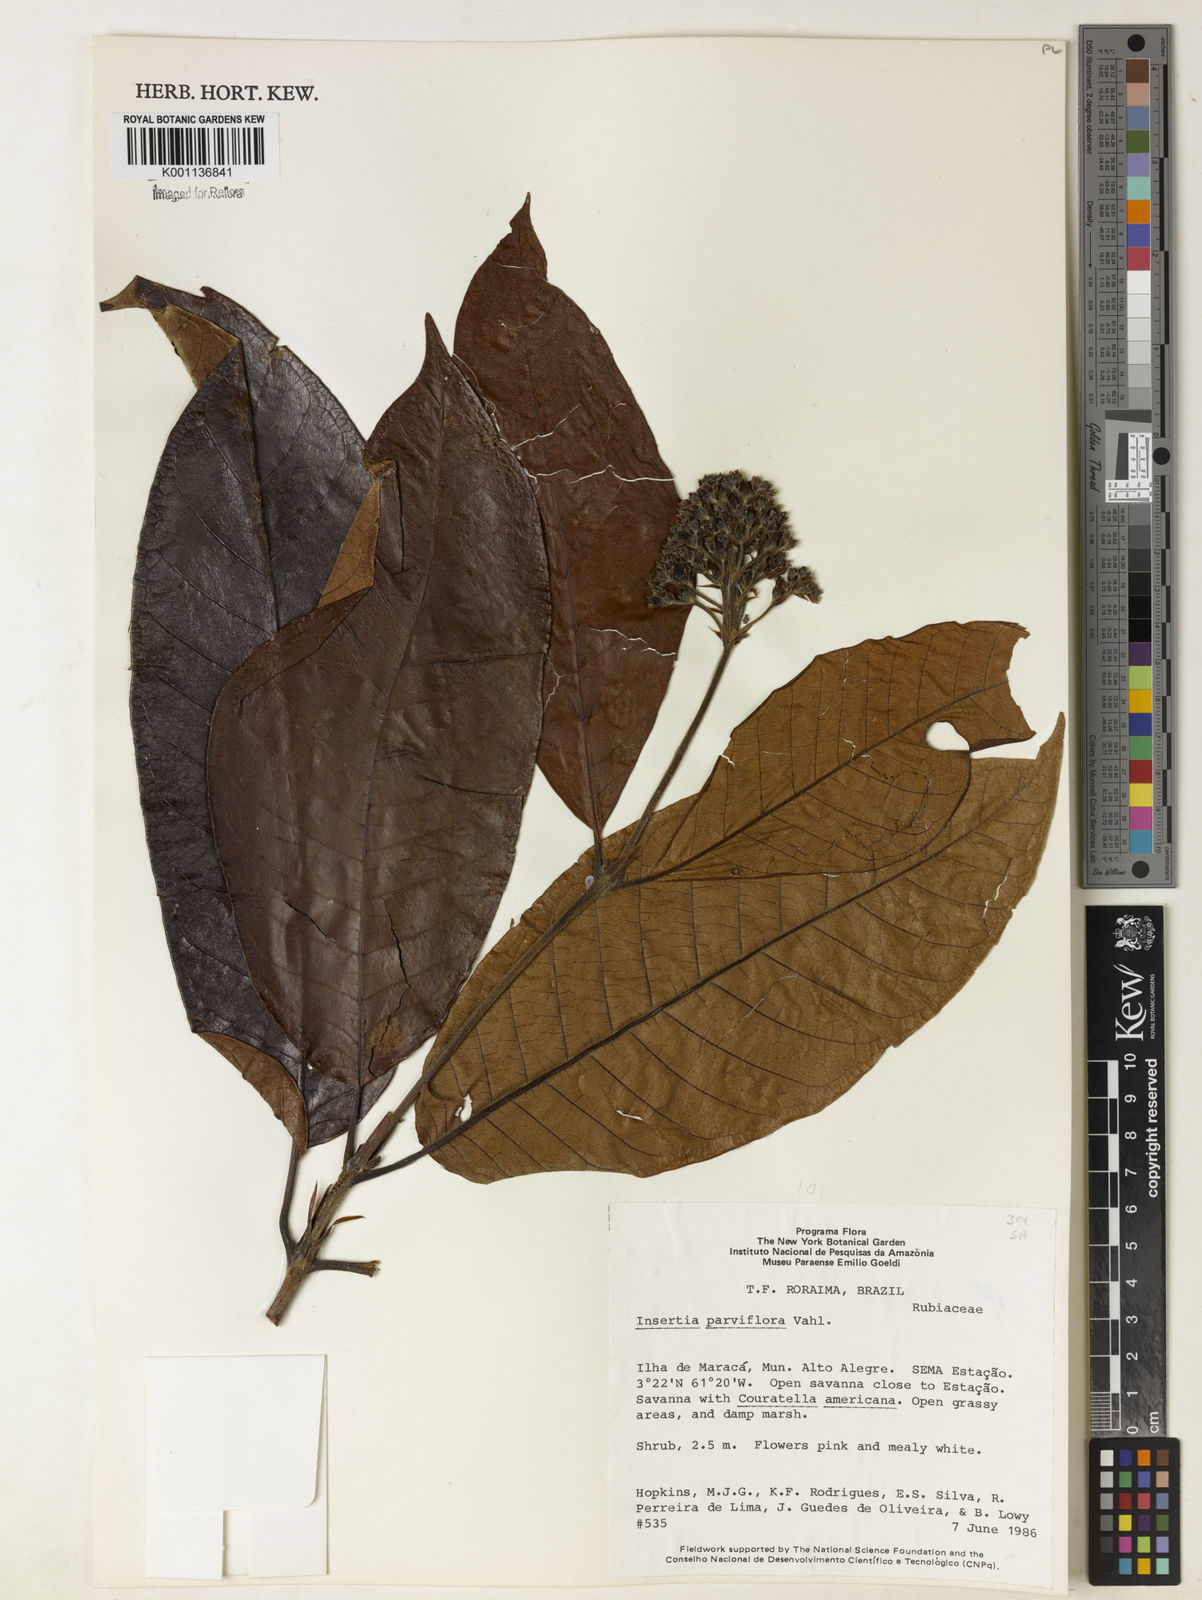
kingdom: Plantae
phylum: Tracheophyta
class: Magnoliopsida
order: Gentianales
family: Rubiaceae
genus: Isertia
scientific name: Isertia parviflora
